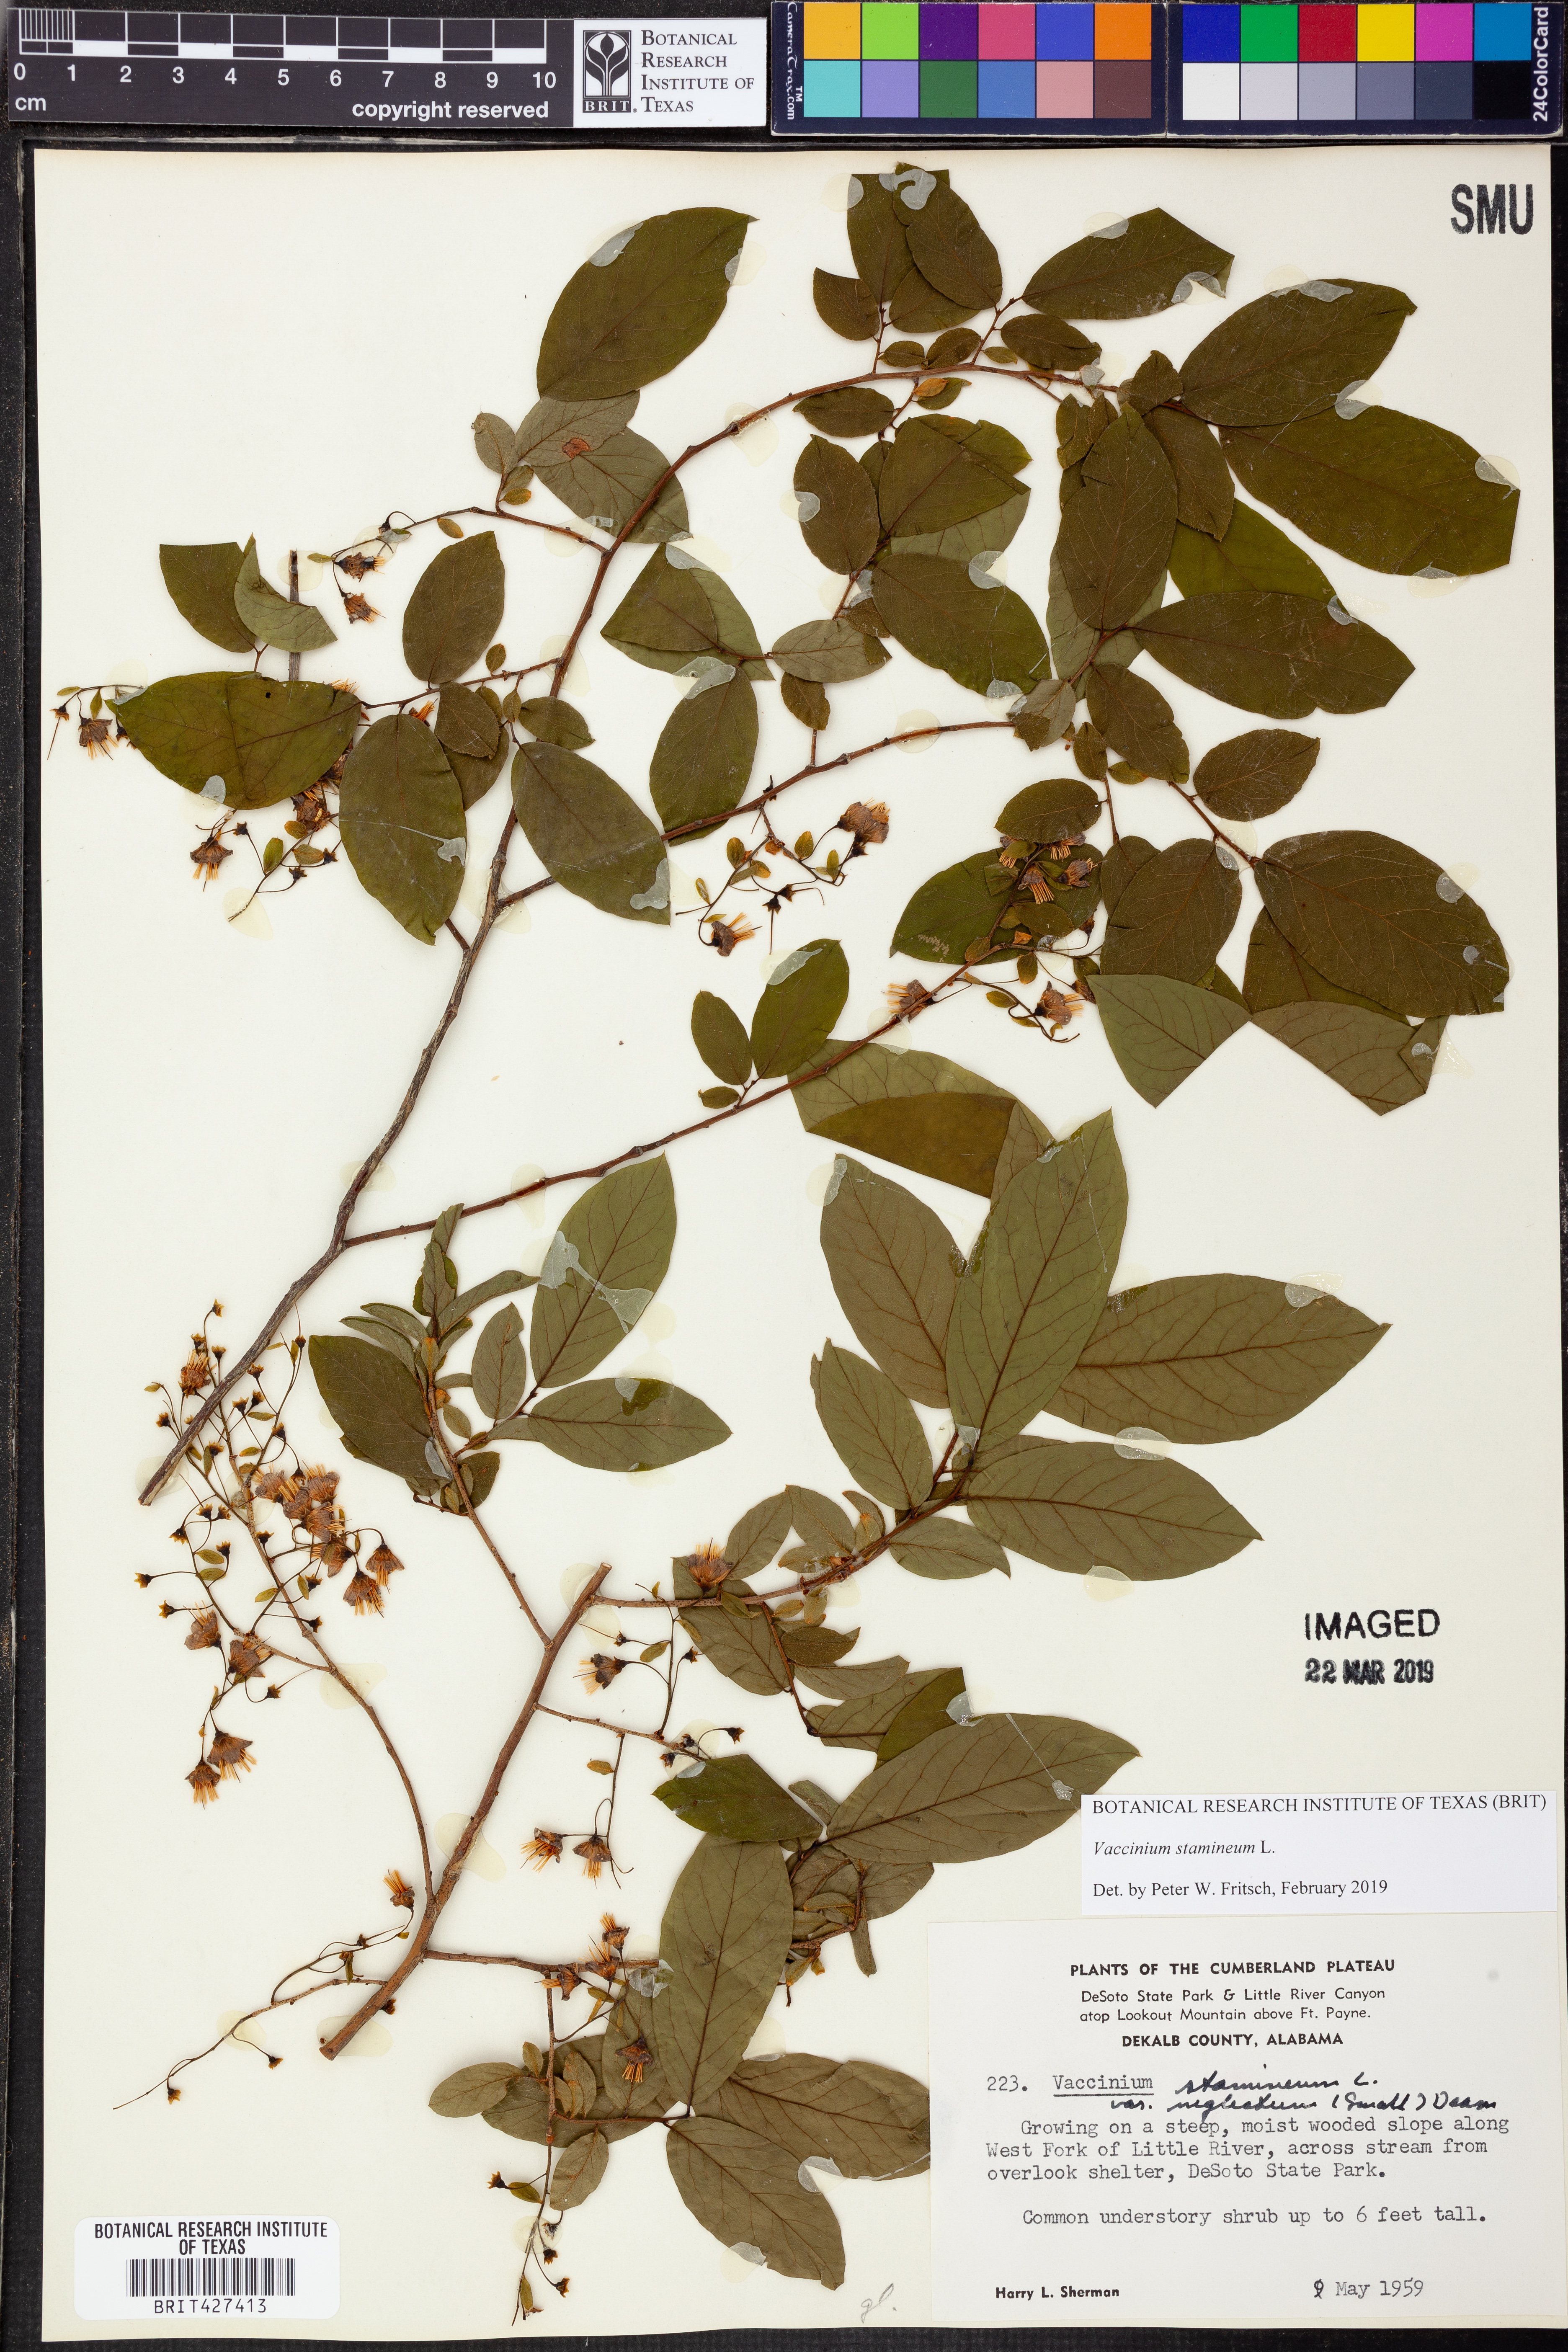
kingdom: Plantae
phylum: Tracheophyta
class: Magnoliopsida
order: Ericales
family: Ericaceae
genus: Vaccinium
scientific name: Vaccinium stamineum
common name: Deerberry
